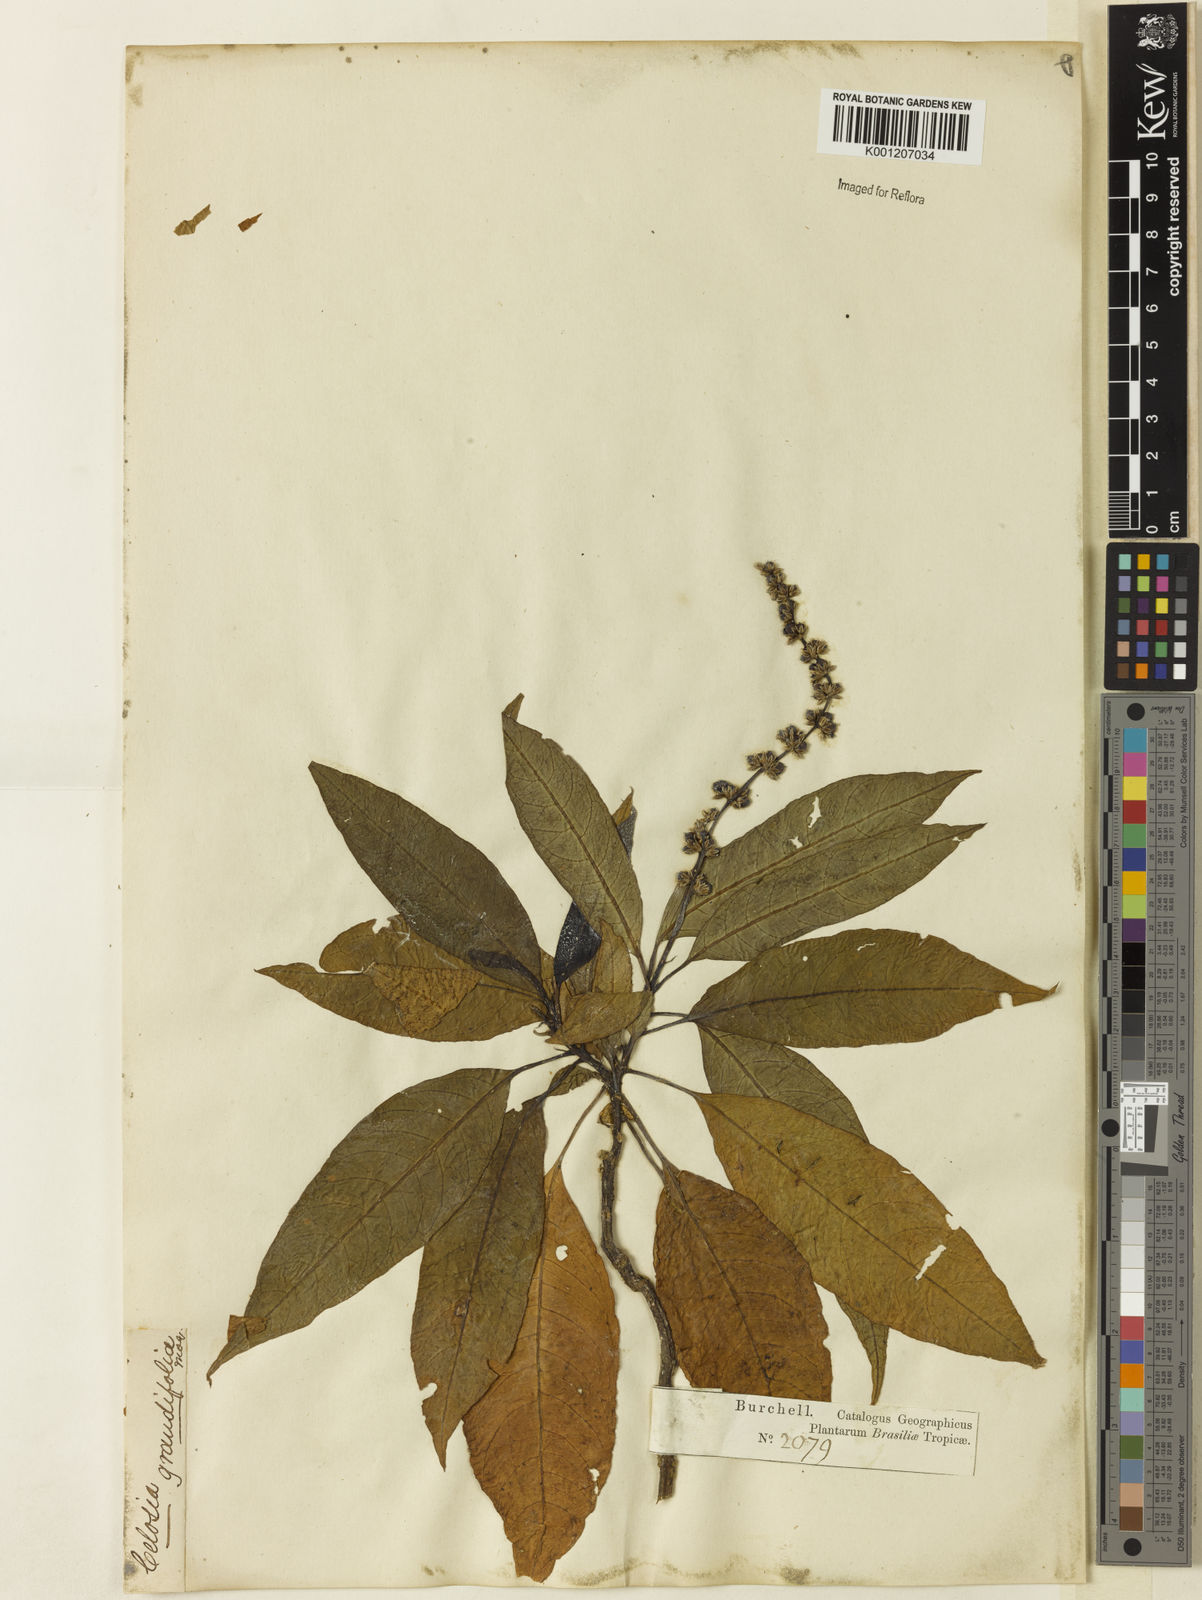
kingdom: Plantae
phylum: Tracheophyta
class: Magnoliopsida
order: Caryophyllales
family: Amaranthaceae
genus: Celosia
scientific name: Celosia grandifolia
